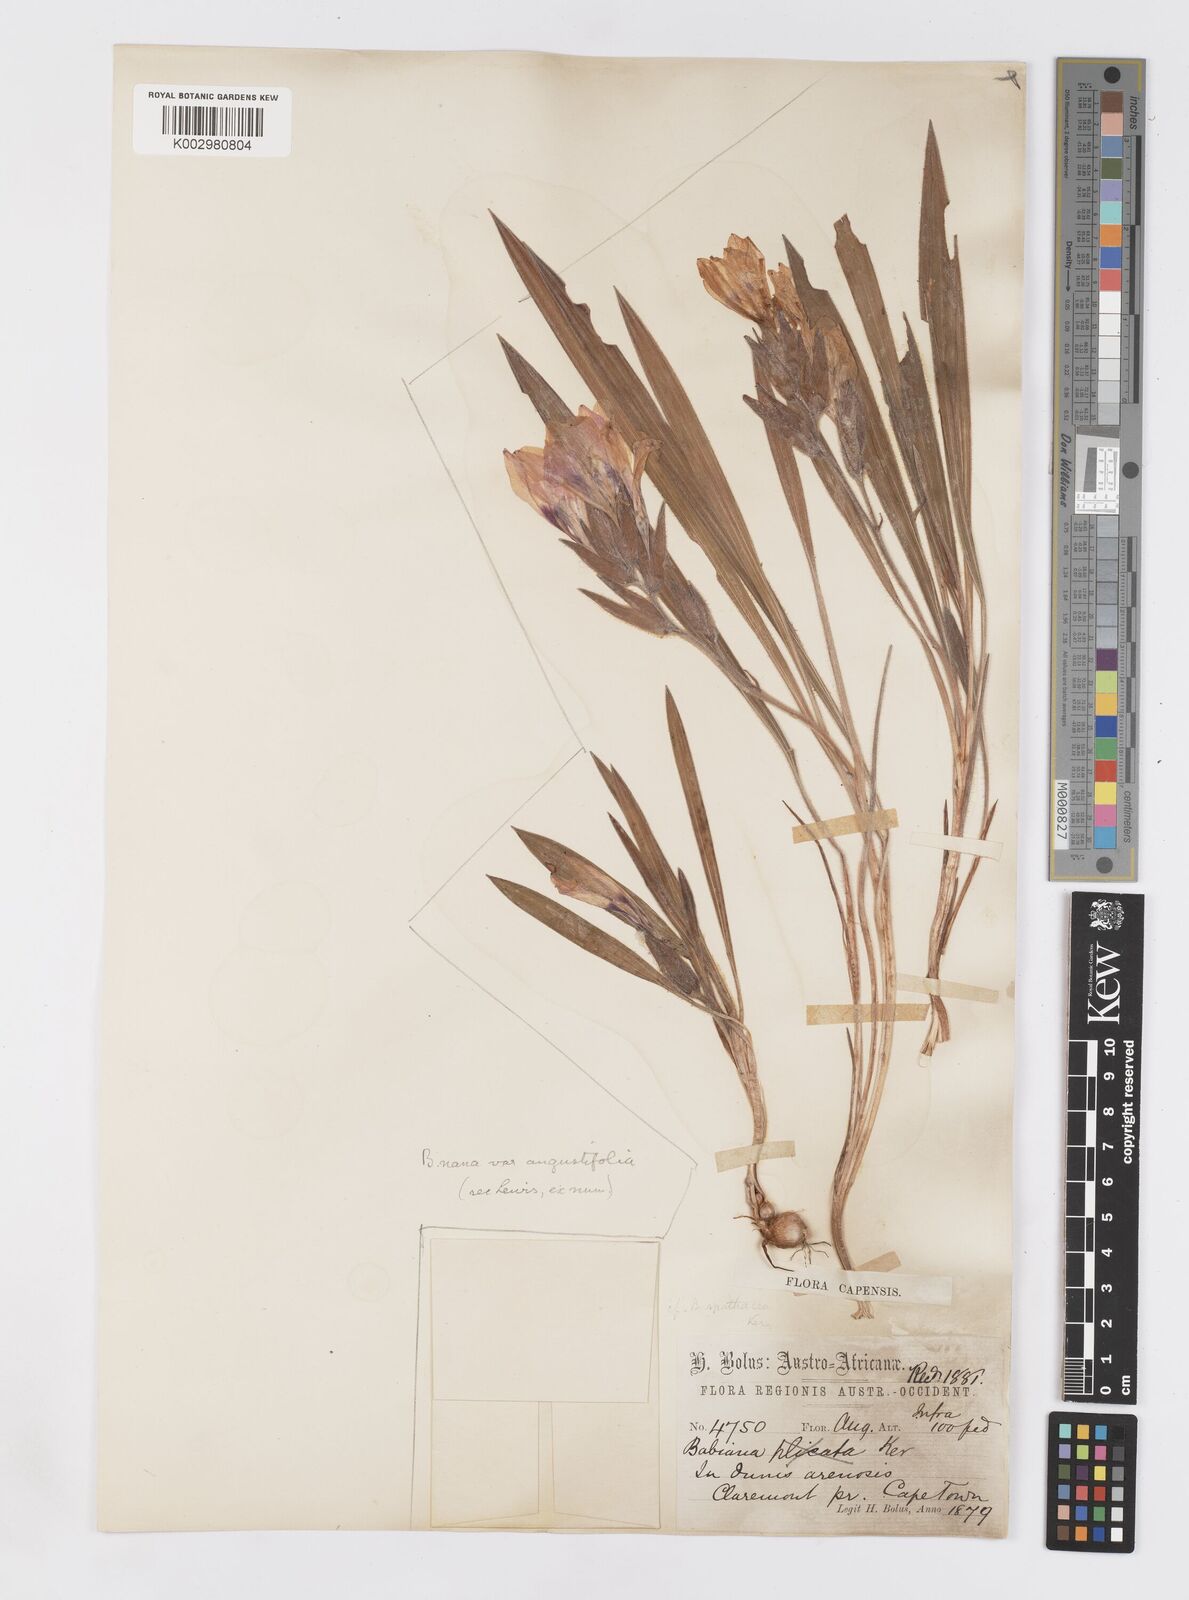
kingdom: Plantae
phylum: Tracheophyta
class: Liliopsida
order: Asparagales
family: Iridaceae
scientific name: Iridaceae
